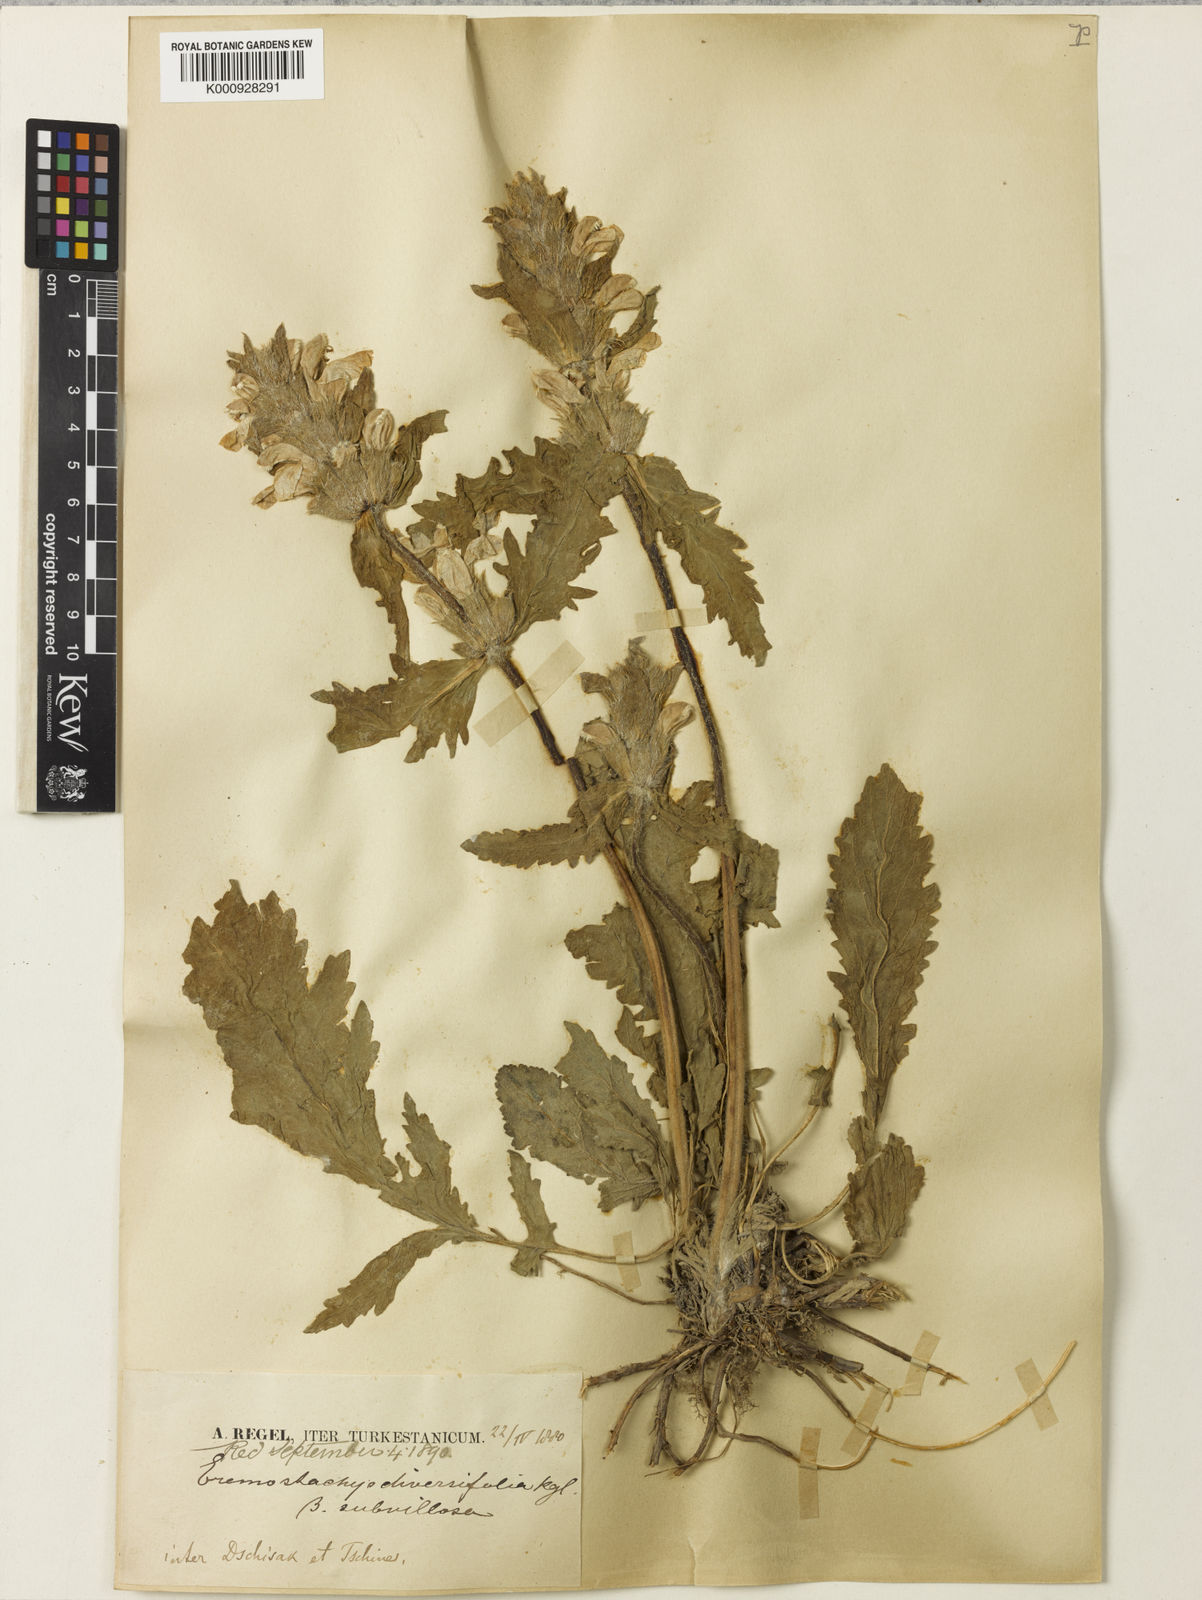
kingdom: Plantae
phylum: Tracheophyta
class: Magnoliopsida
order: Lamiales
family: Lamiaceae
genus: Phlomoides
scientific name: Phlomoides labiosa
